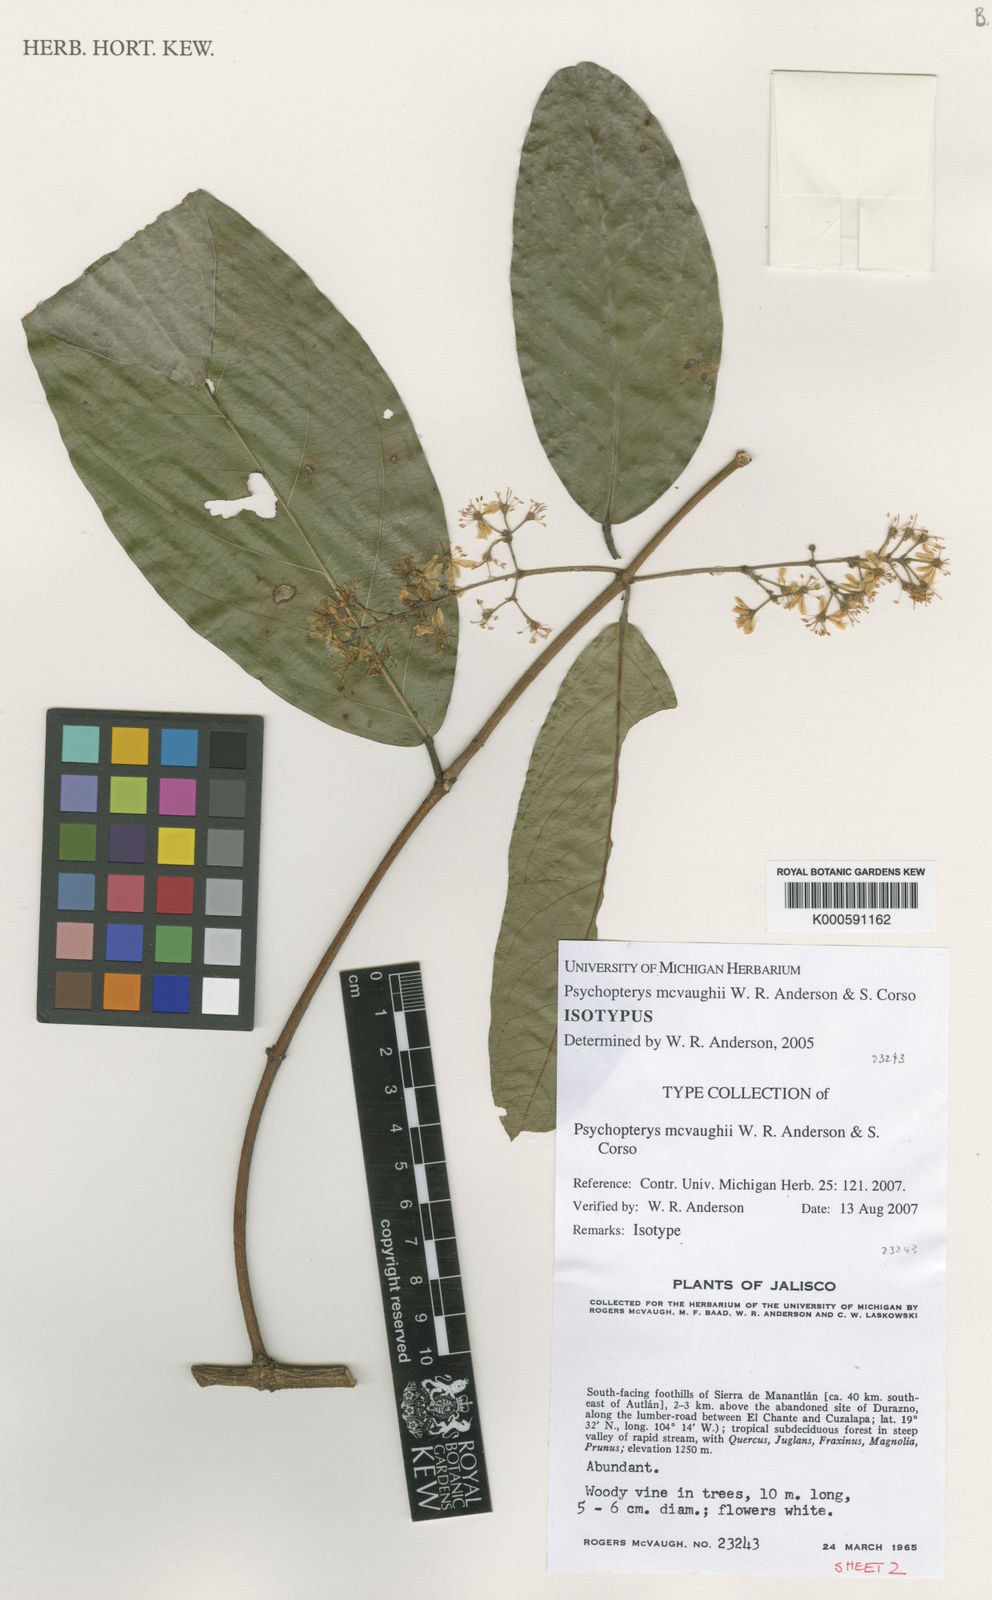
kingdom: Plantae
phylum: Tracheophyta
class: Magnoliopsida
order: Malpighiales
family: Malpighiaceae
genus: Psychopterys
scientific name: Psychopterys mcvaughii
